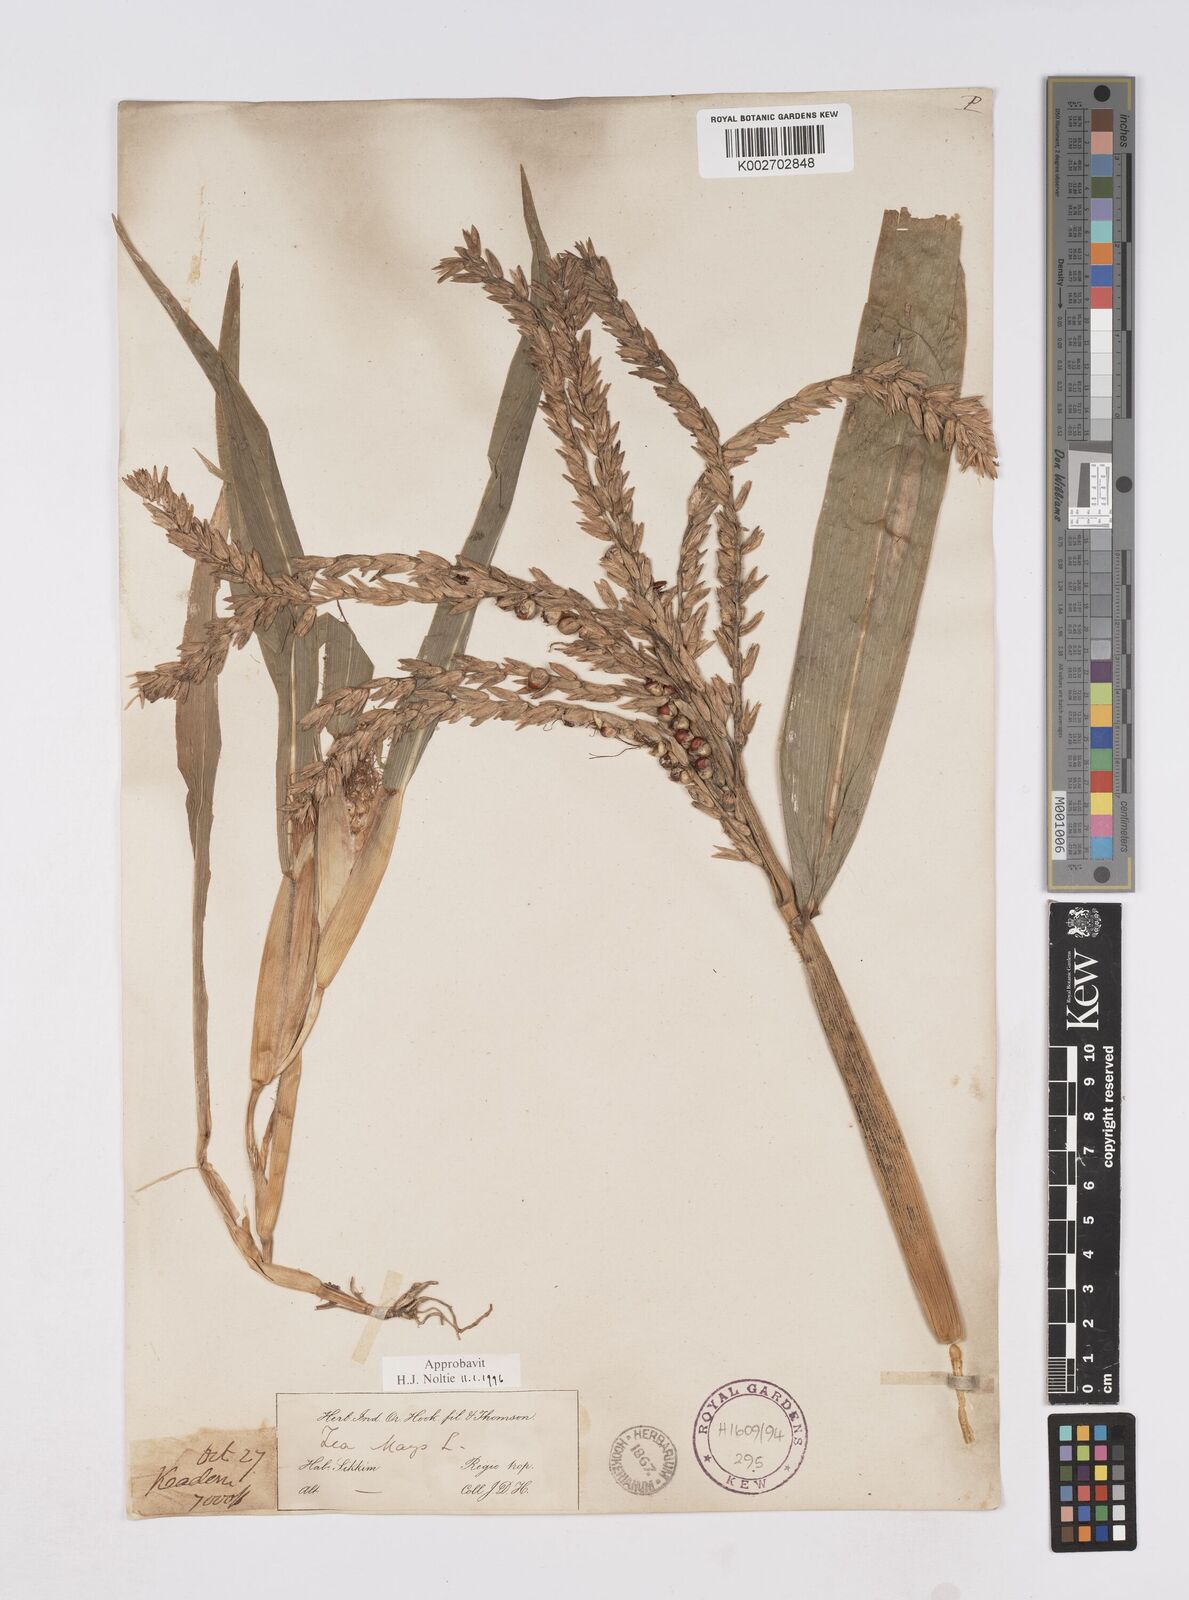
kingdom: Plantae
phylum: Tracheophyta
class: Liliopsida
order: Poales
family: Poaceae
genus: Zea
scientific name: Zea mays
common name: Maize
